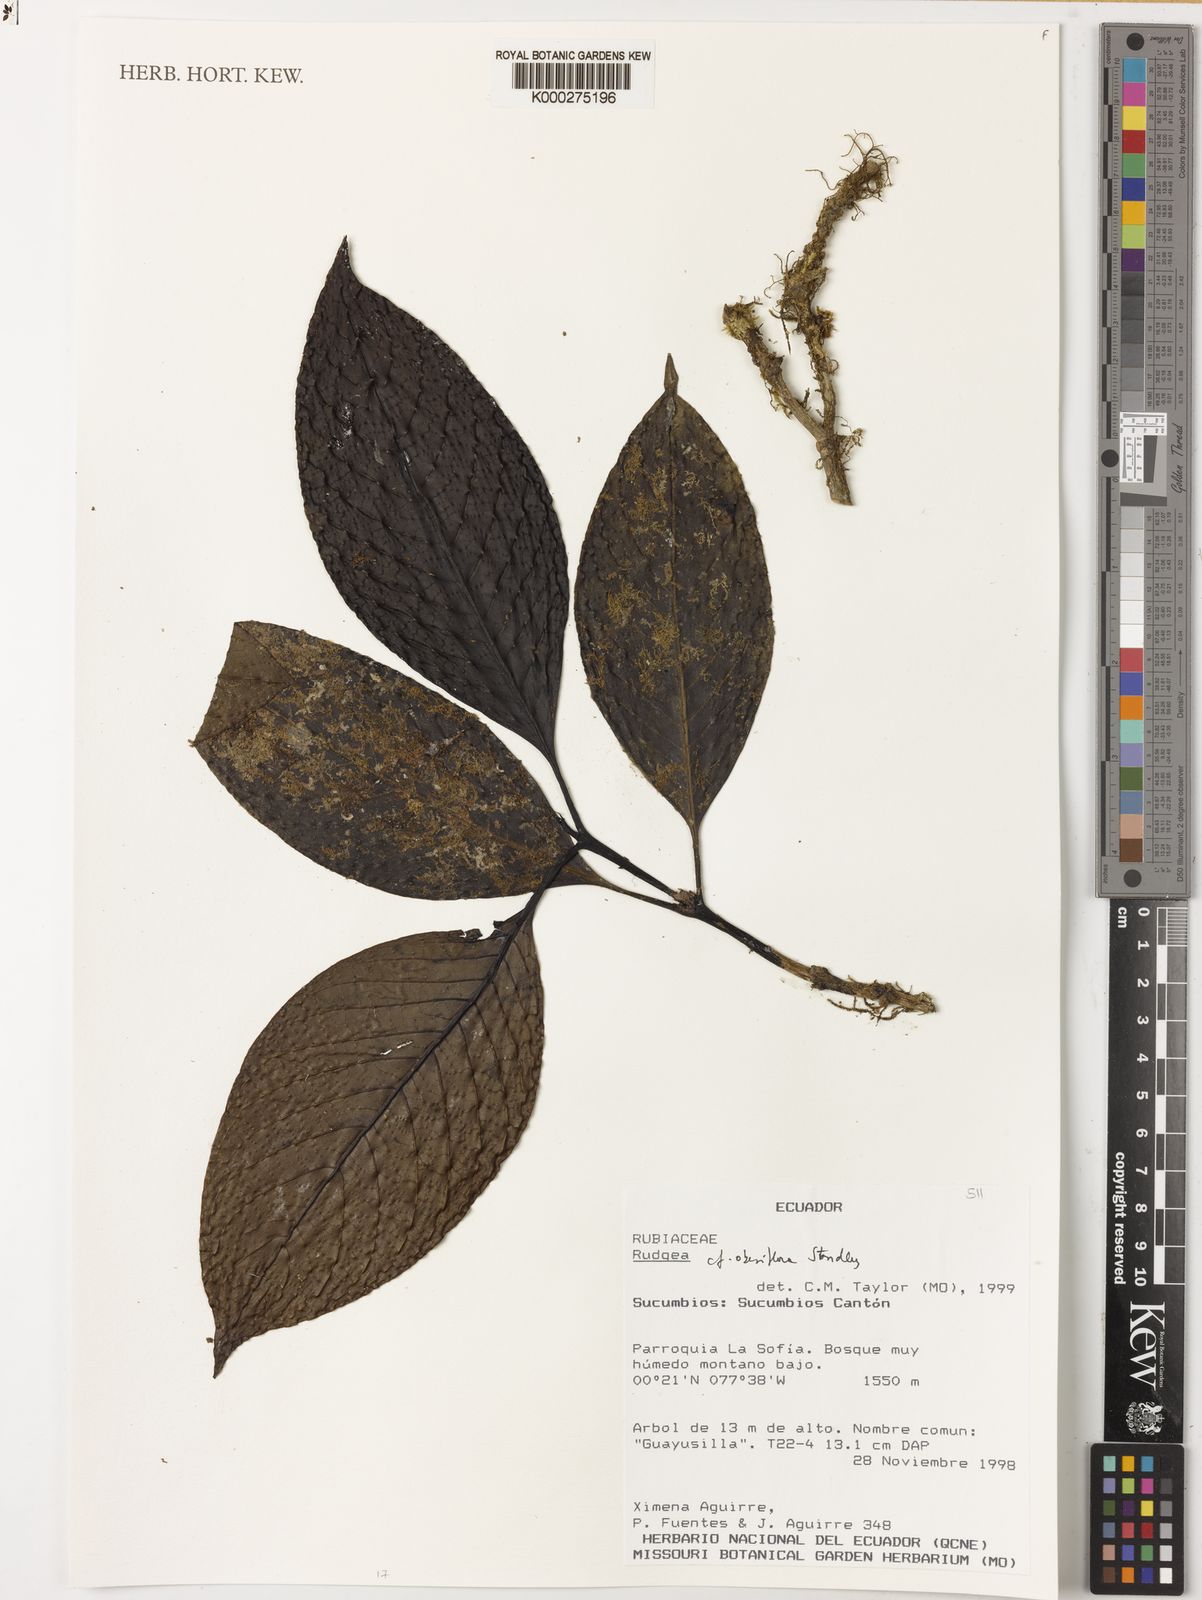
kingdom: Plantae
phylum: Tracheophyta
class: Magnoliopsida
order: Gentianales
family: Rubiaceae
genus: Rudgea
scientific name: Rudgea obesiflora
